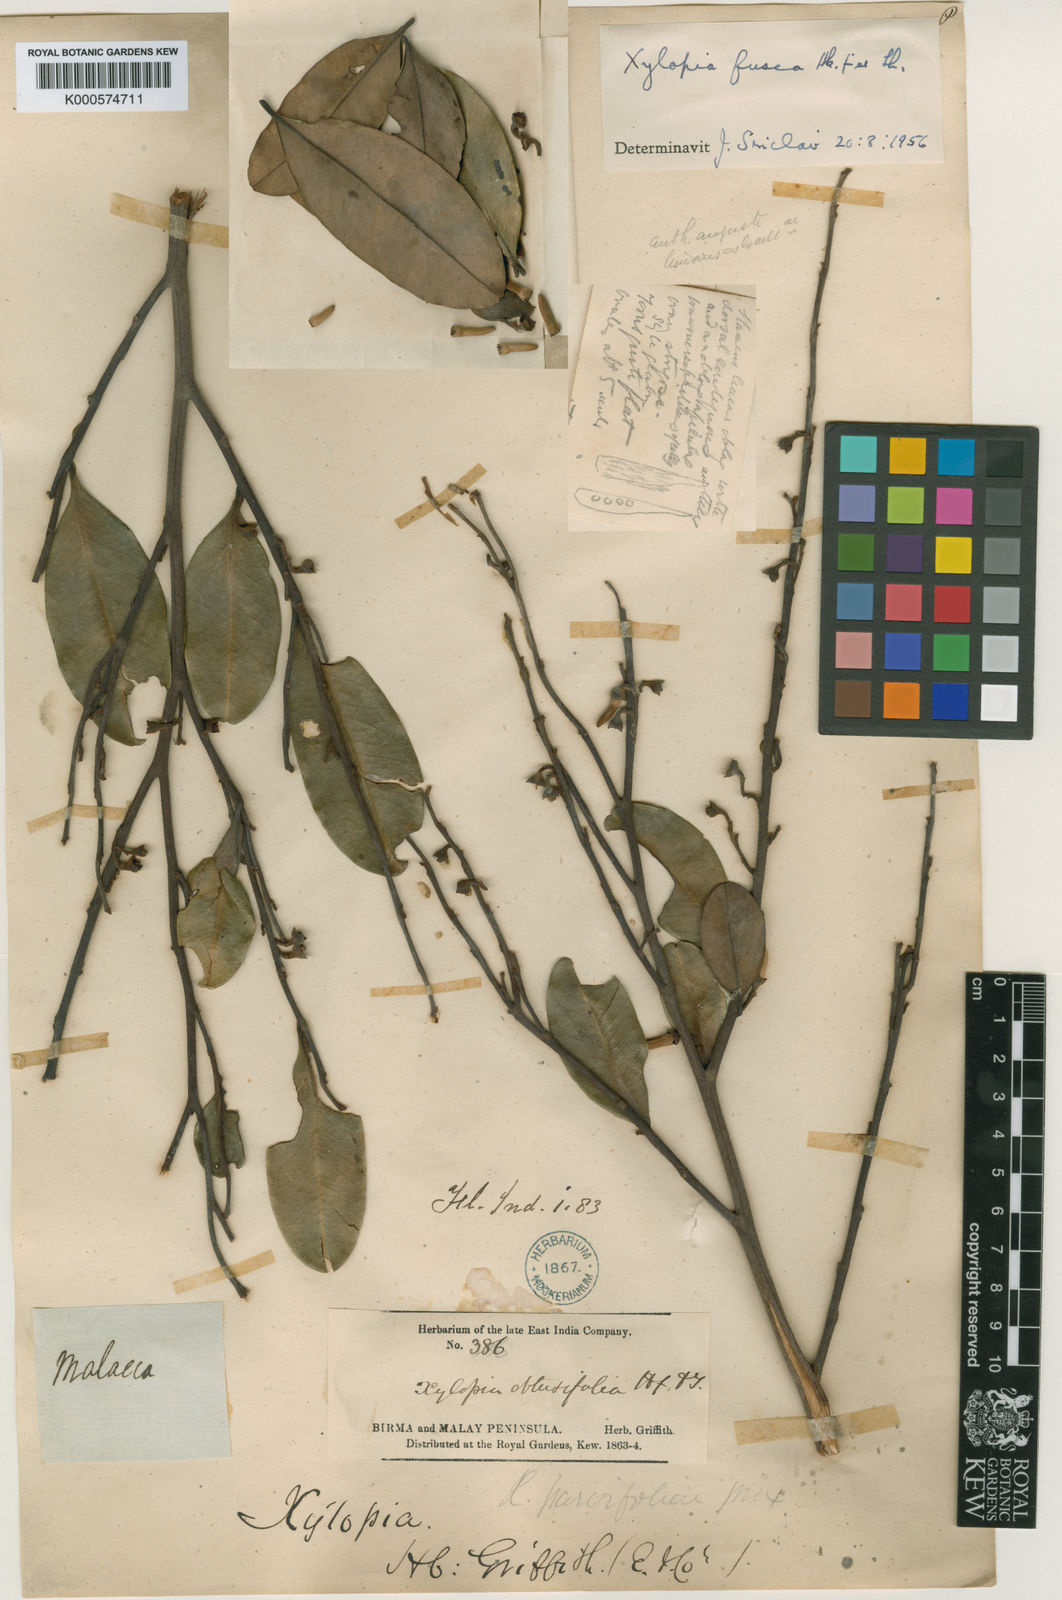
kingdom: Plantae
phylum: Tracheophyta
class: Magnoliopsida
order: Magnoliales
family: Annonaceae
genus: Xylopia
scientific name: Xylopia fusca
